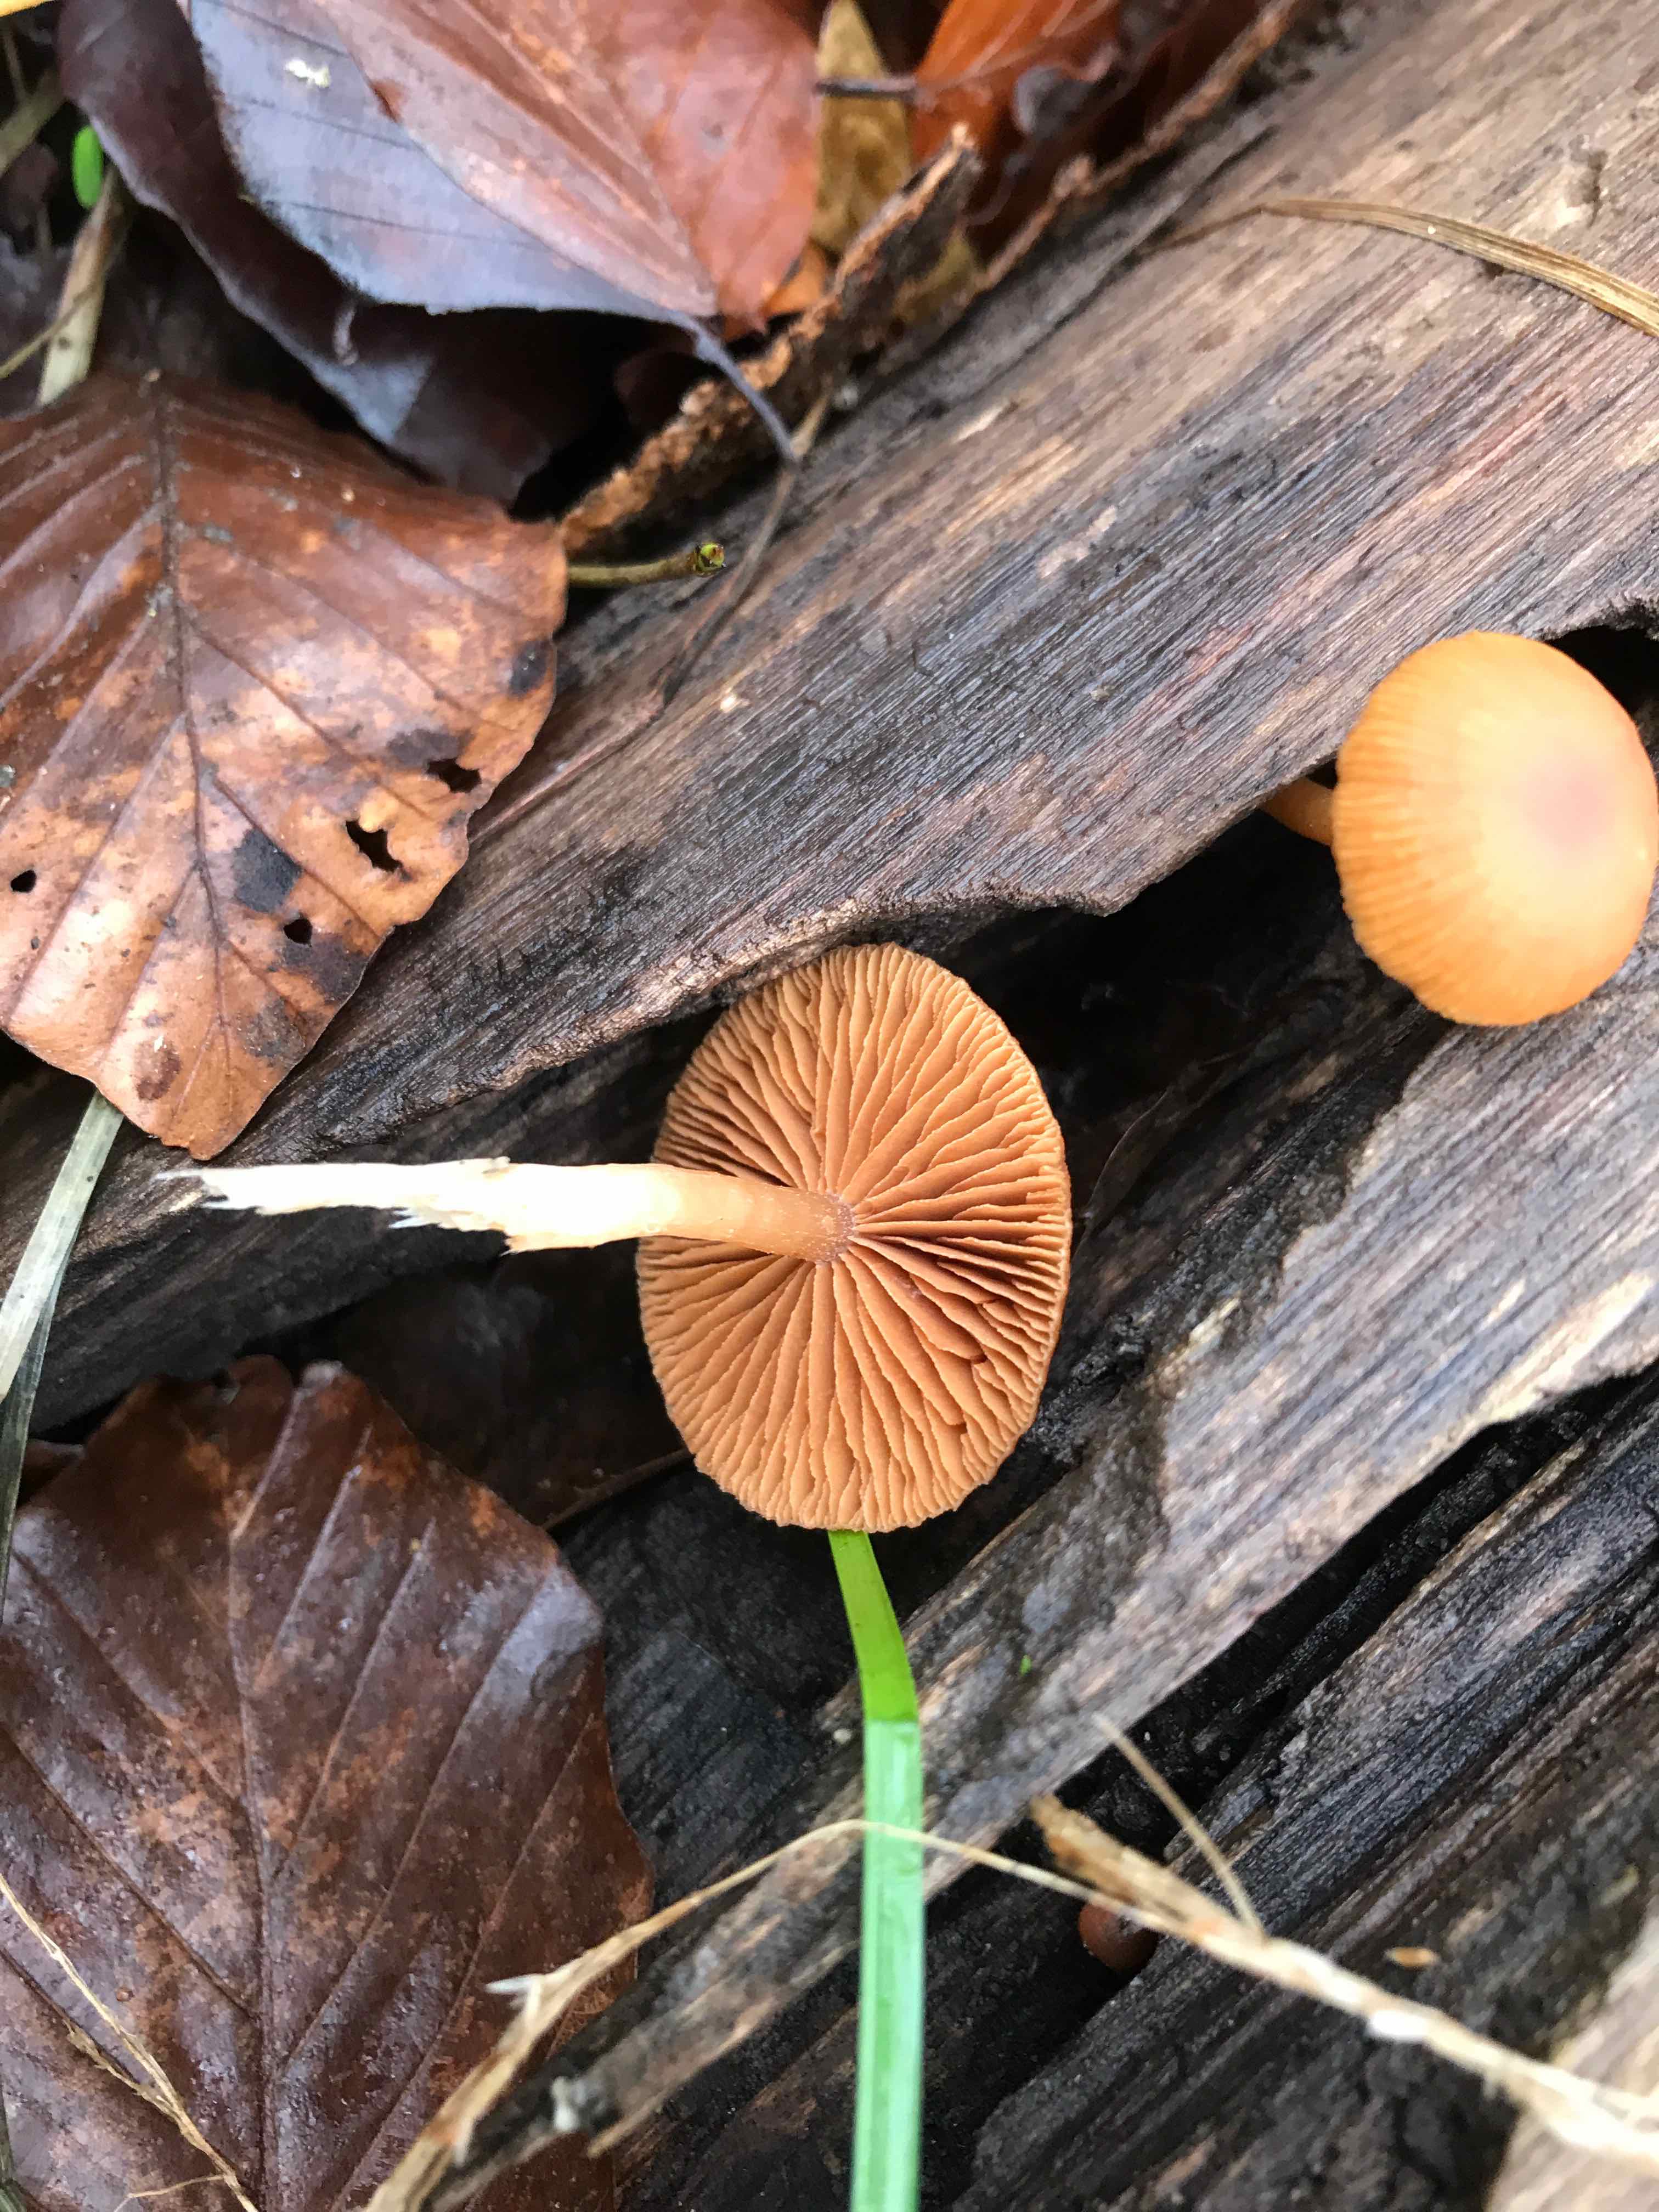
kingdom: Fungi
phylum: Basidiomycota
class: Agaricomycetes
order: Agaricales
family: Tubariaceae
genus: Tubaria
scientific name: Tubaria furfuracea
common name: kliddet fnughat
